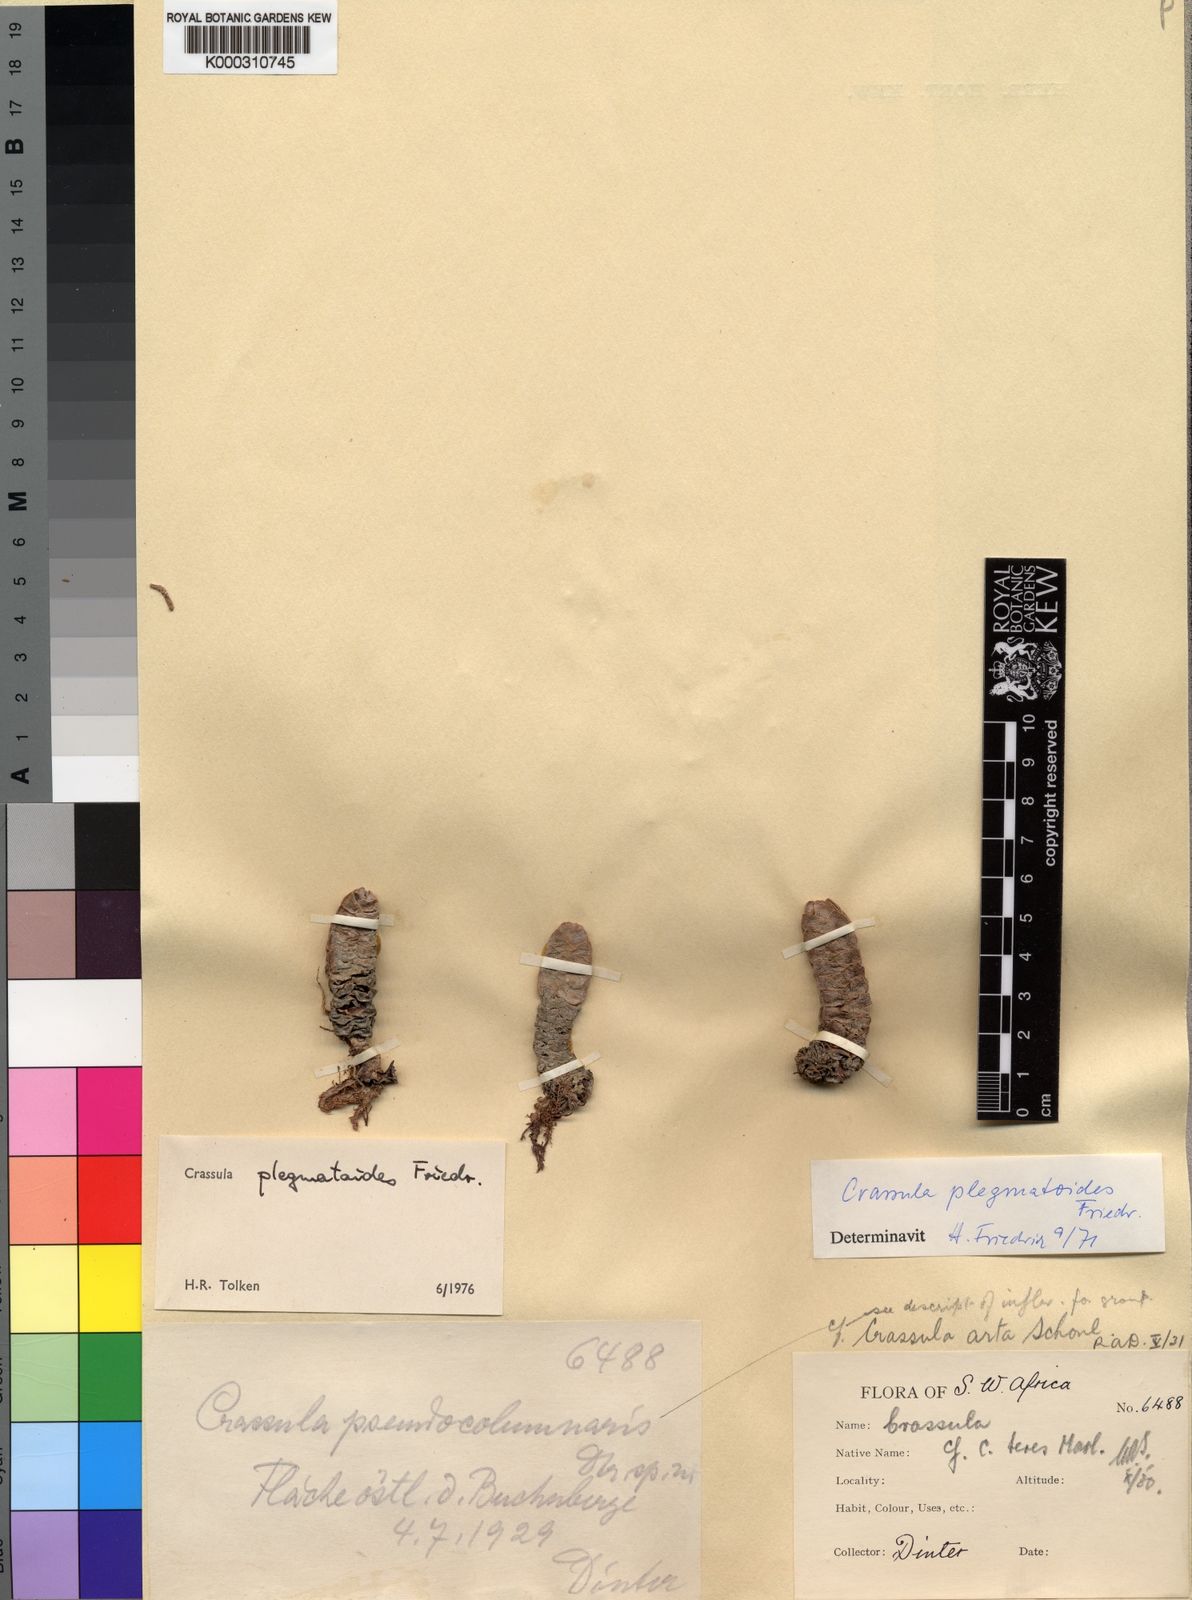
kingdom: Plantae
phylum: Tracheophyta
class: Magnoliopsida
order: Saxifragales
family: Crassulaceae
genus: Crassula
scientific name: Crassula plegmatoides
